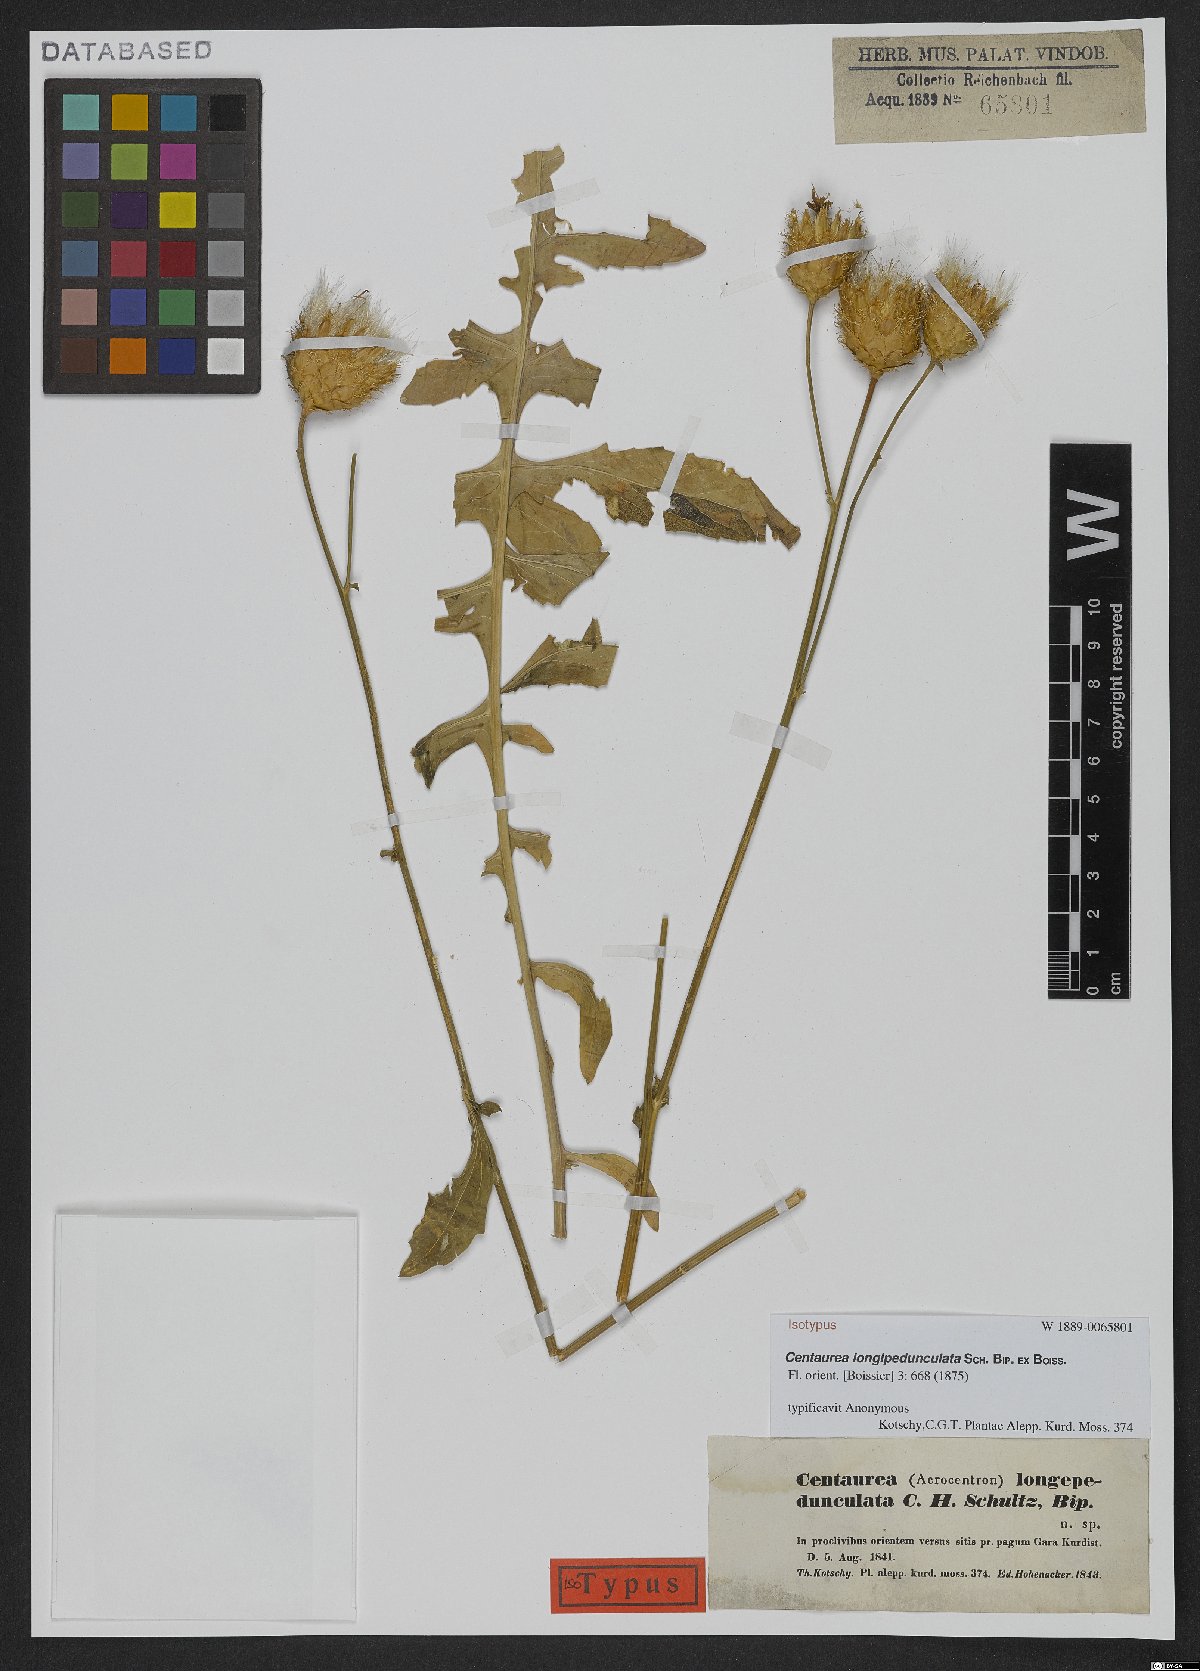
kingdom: Plantae
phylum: Tracheophyta
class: Magnoliopsida
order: Asterales
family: Asteraceae
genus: Centaurea
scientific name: Centaurea longepedunculata
